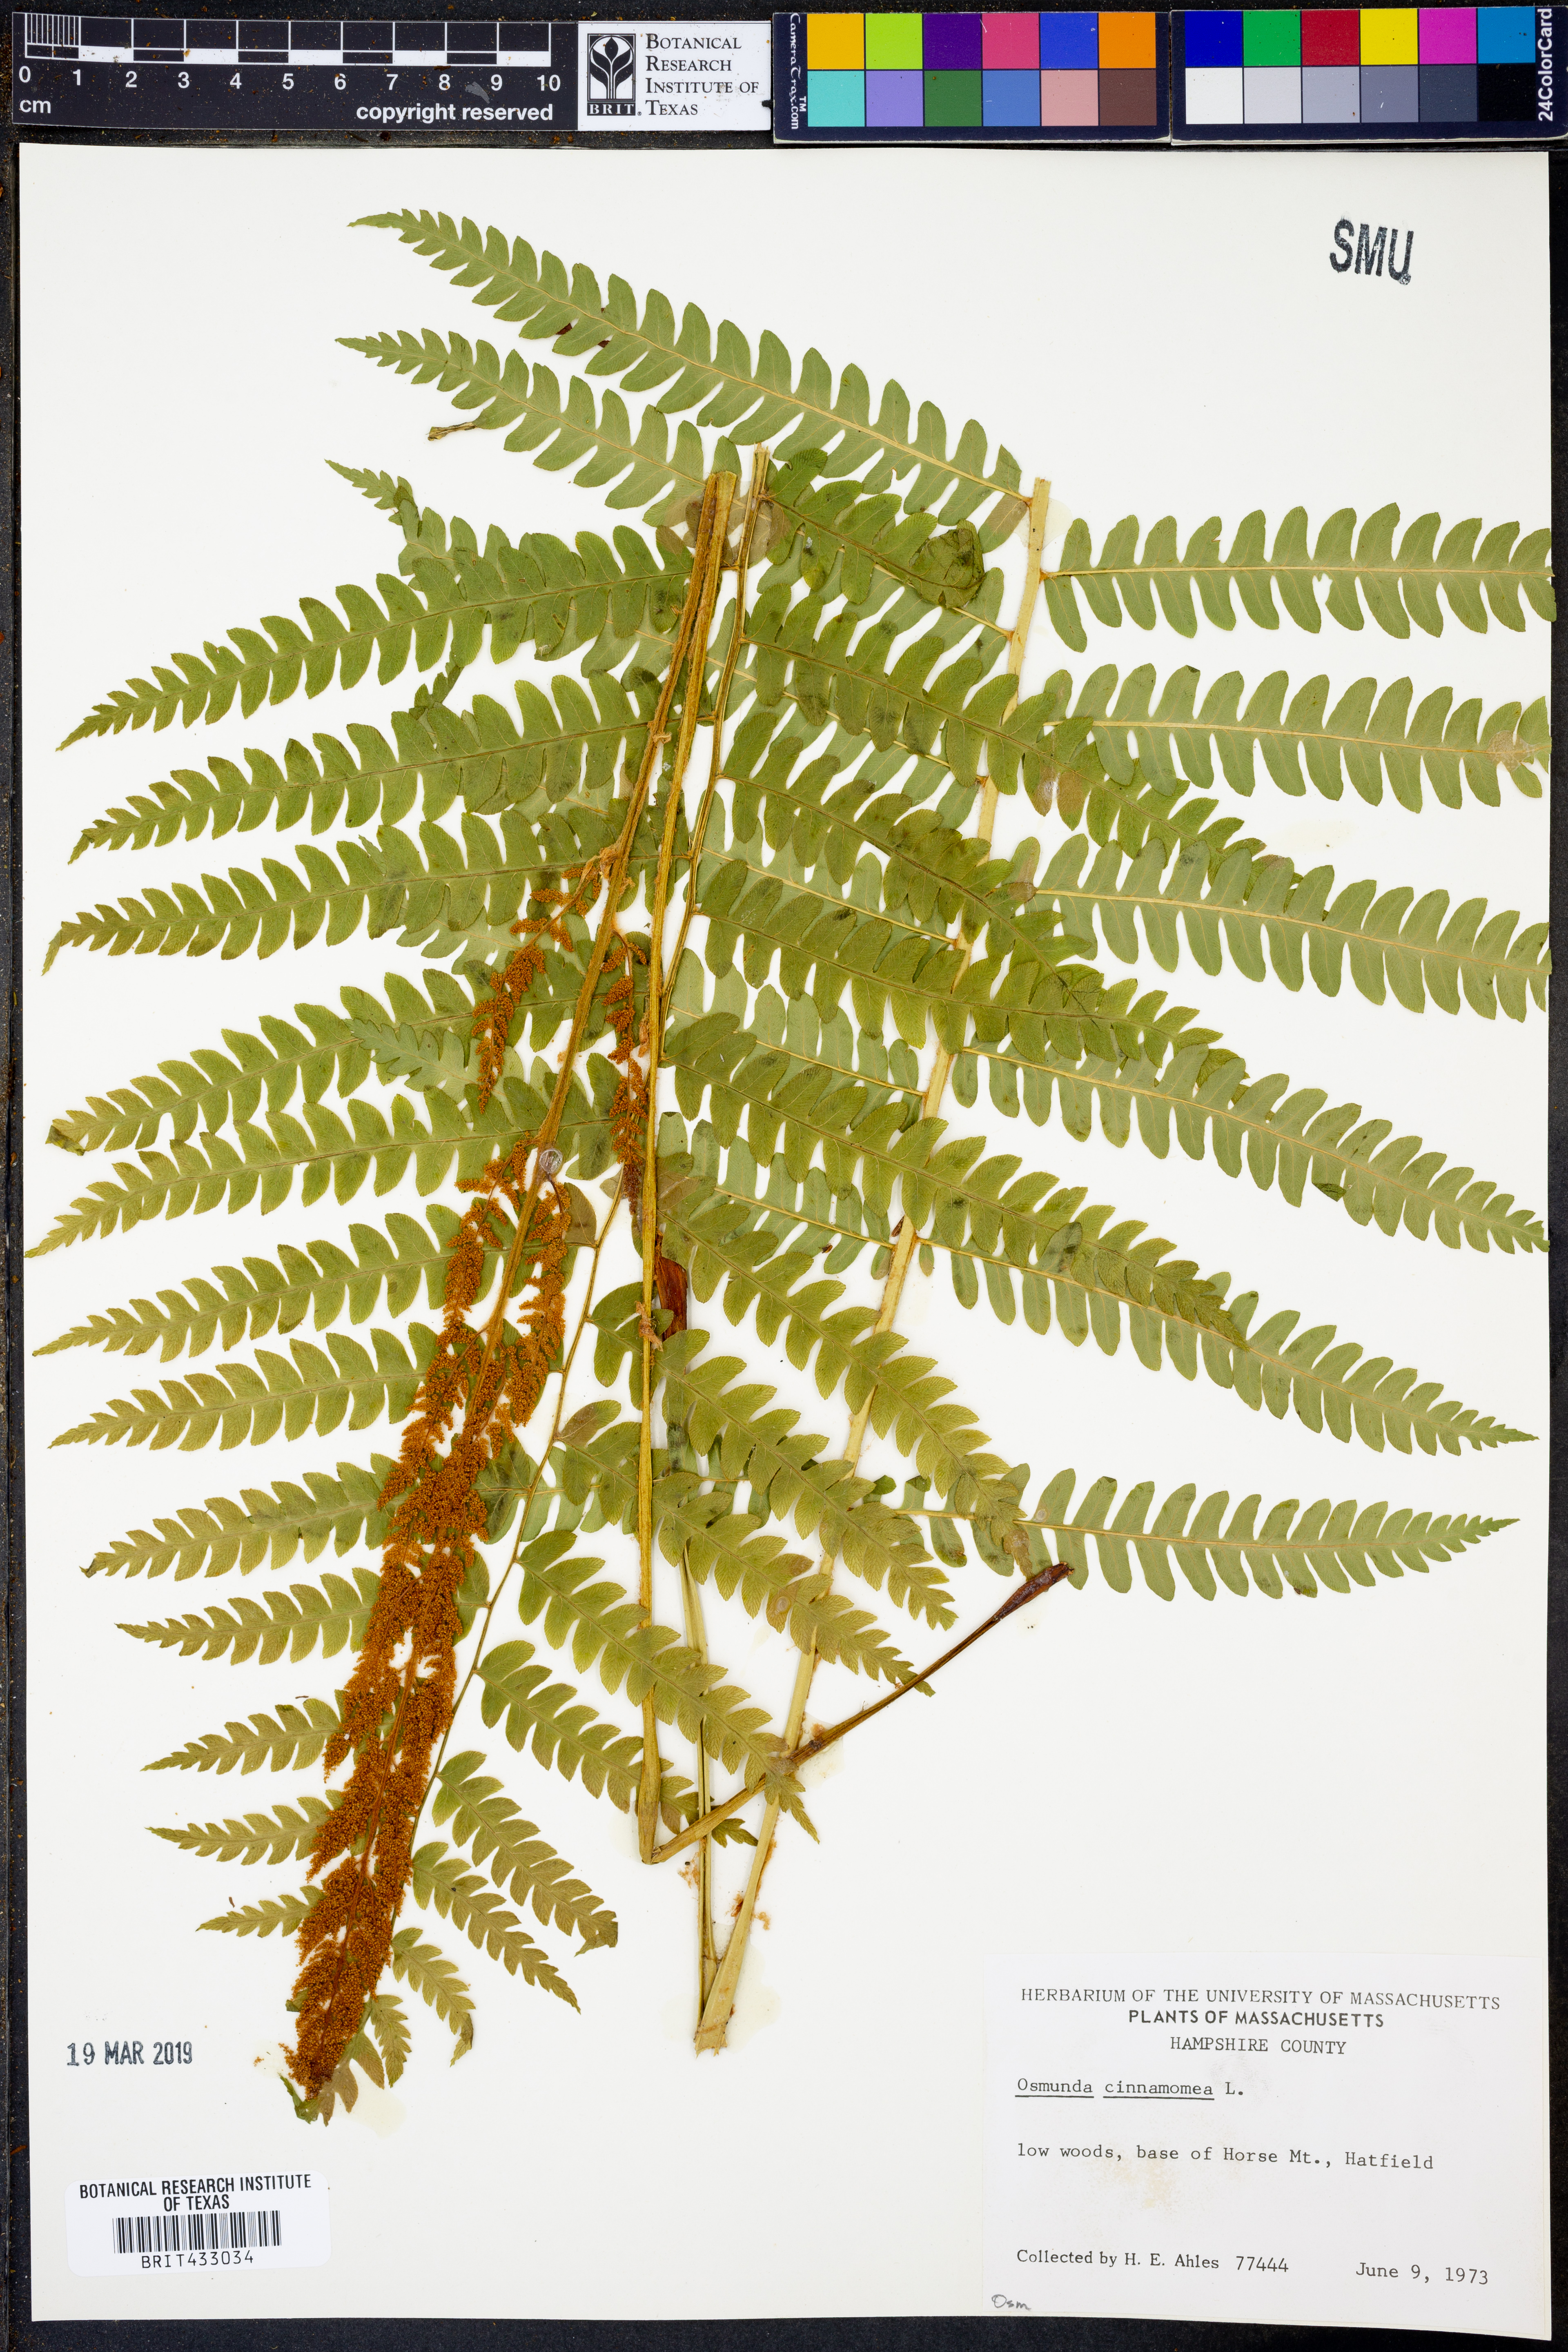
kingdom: Plantae
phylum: Tracheophyta
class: Polypodiopsida
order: Osmundales
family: Osmundaceae
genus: Osmundastrum
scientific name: Osmundastrum cinnamomeum
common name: Cinnamon fern
